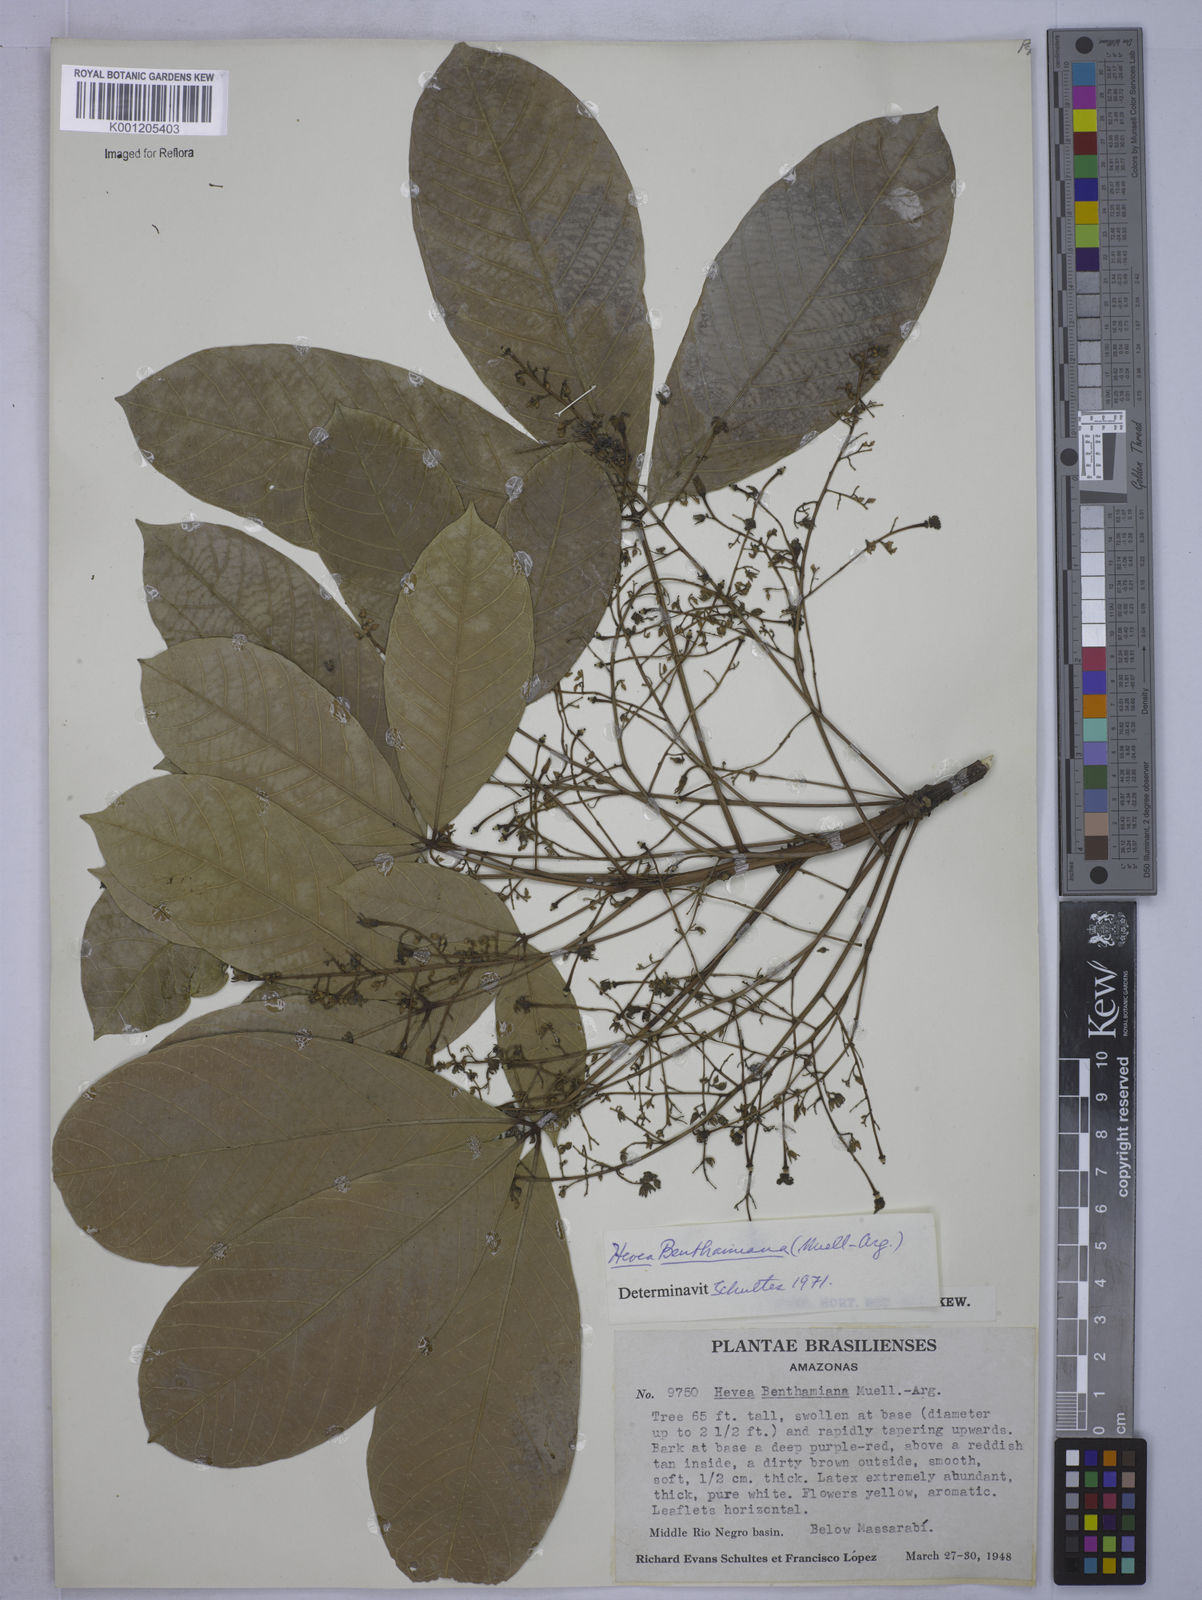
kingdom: Plantae
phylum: Tracheophyta
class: Magnoliopsida
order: Malpighiales
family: Euphorbiaceae
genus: Hevea
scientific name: Hevea
